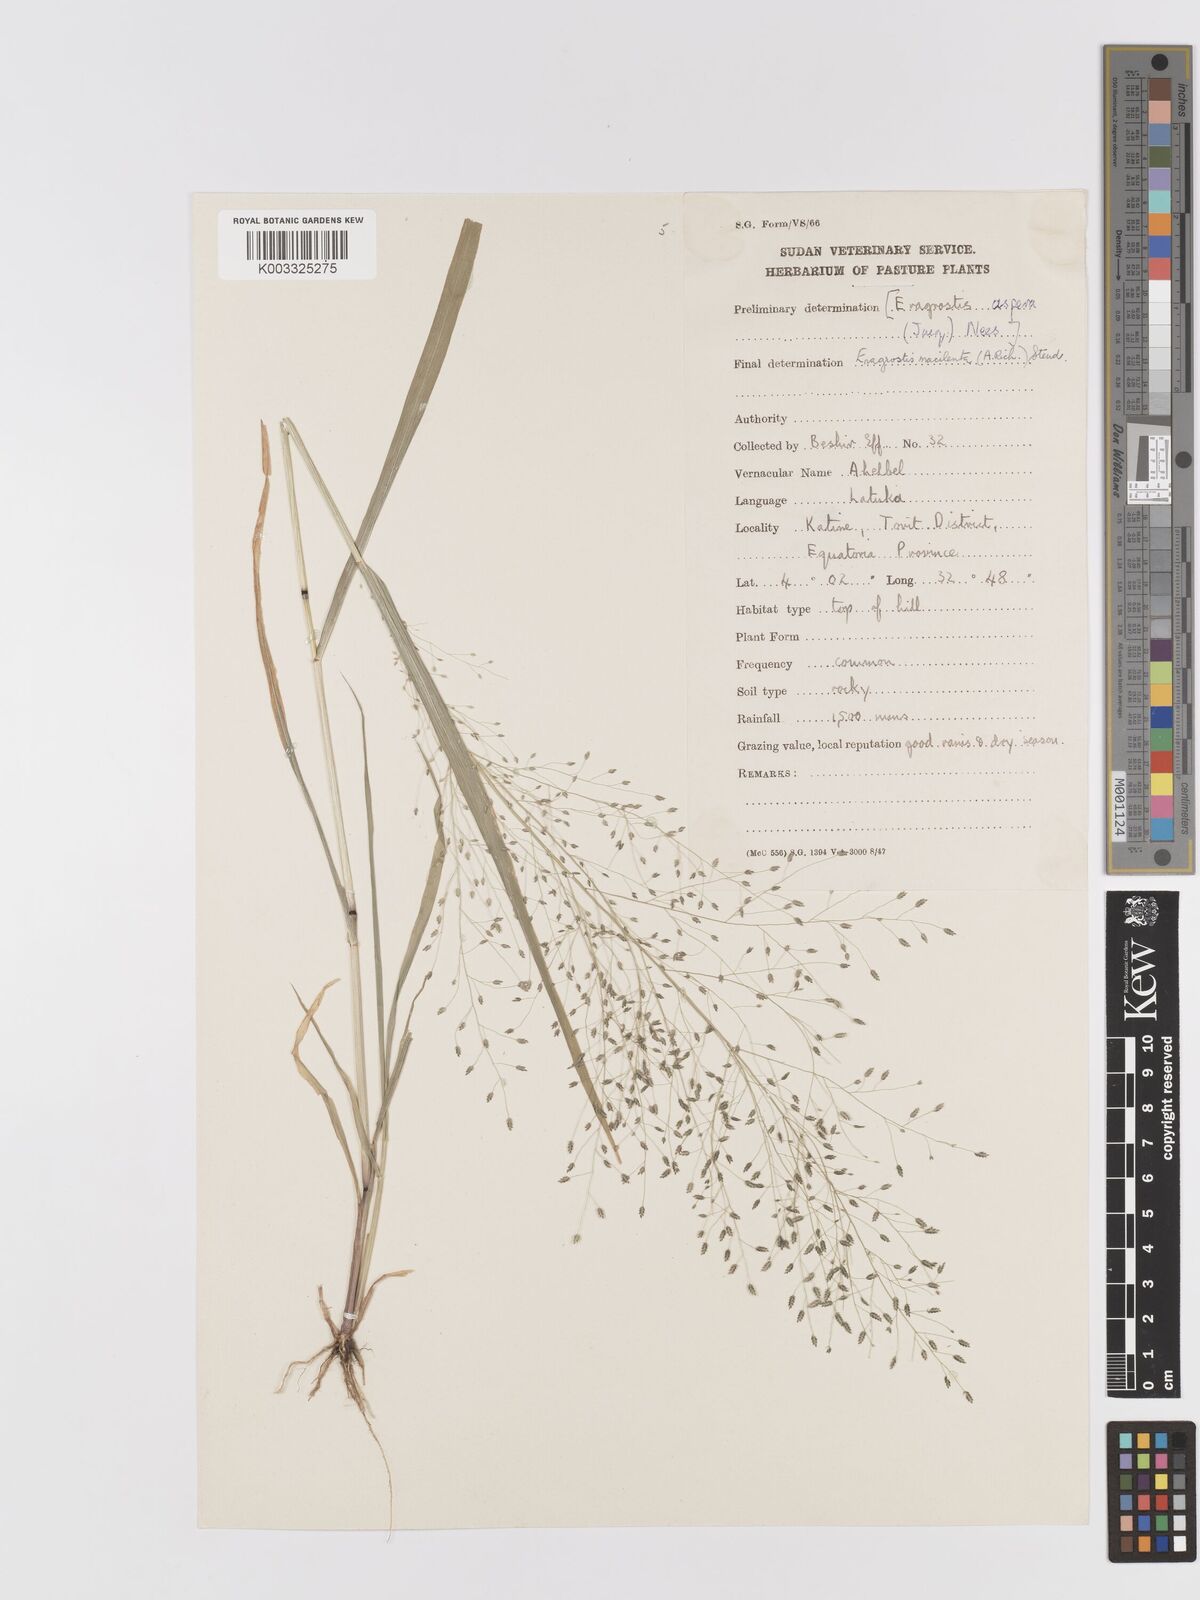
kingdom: Plantae
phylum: Tracheophyta
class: Liliopsida
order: Poales
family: Poaceae
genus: Eragrostis
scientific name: Eragrostis macilenta
